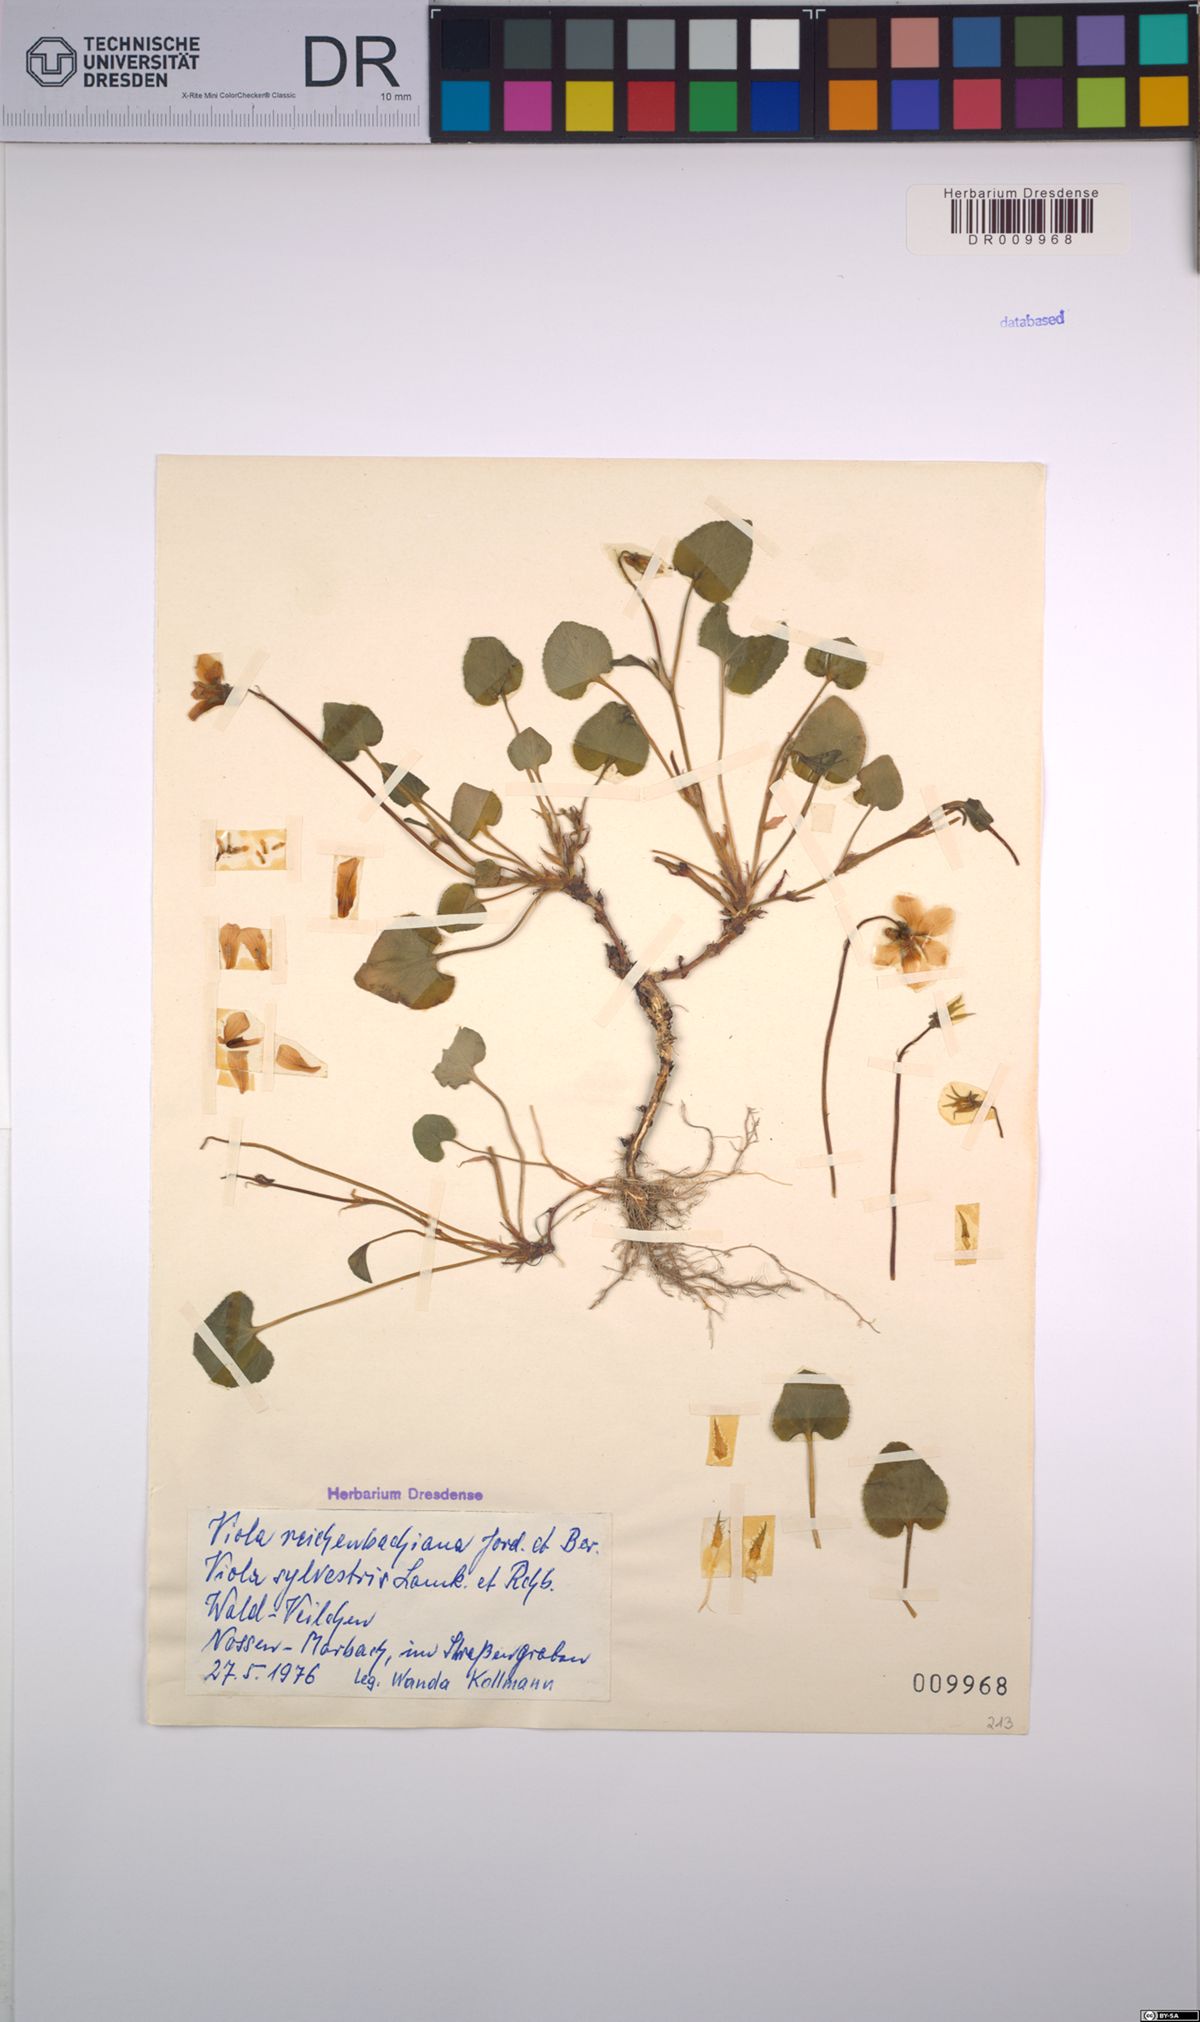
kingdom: Plantae
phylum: Tracheophyta
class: Magnoliopsida
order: Malpighiales
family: Violaceae
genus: Viola
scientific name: Viola reichenbachiana
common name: Early dog-violet
